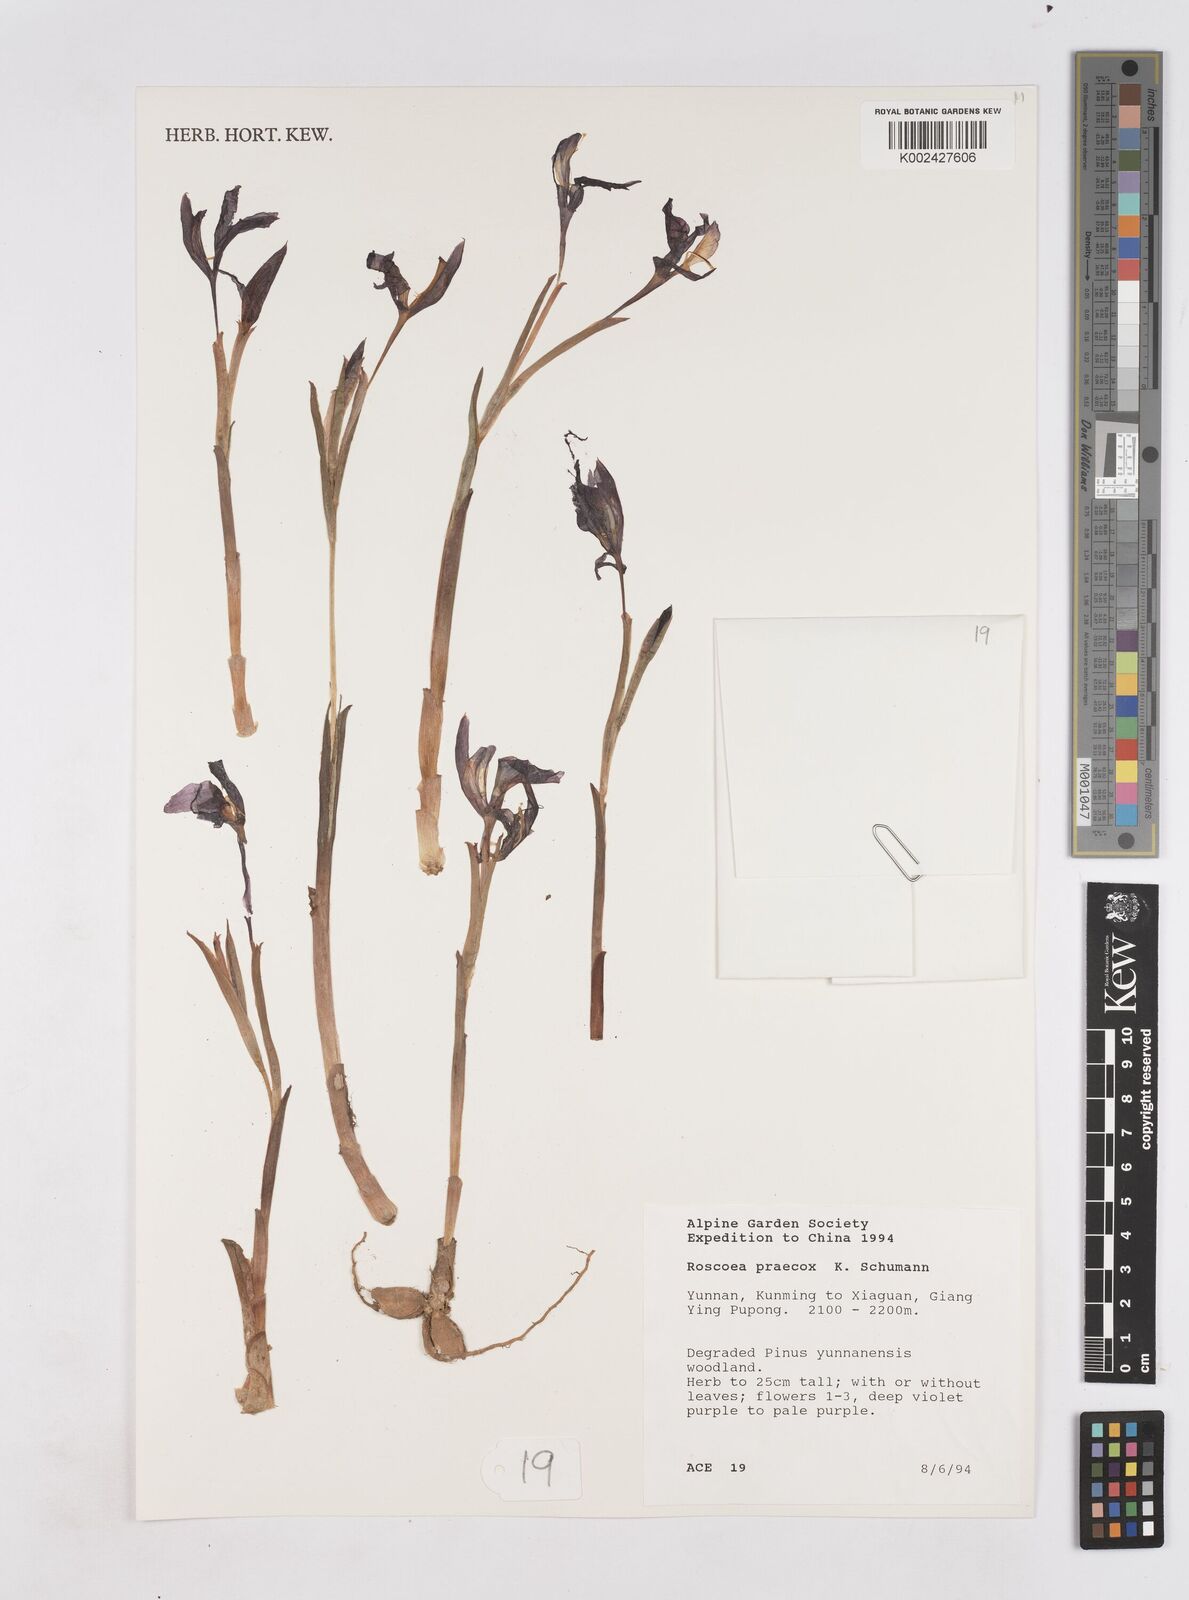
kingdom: Plantae
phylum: Tracheophyta
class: Liliopsida
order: Zingiberales
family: Zingiberaceae
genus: Roscoea
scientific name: Roscoea praecox
